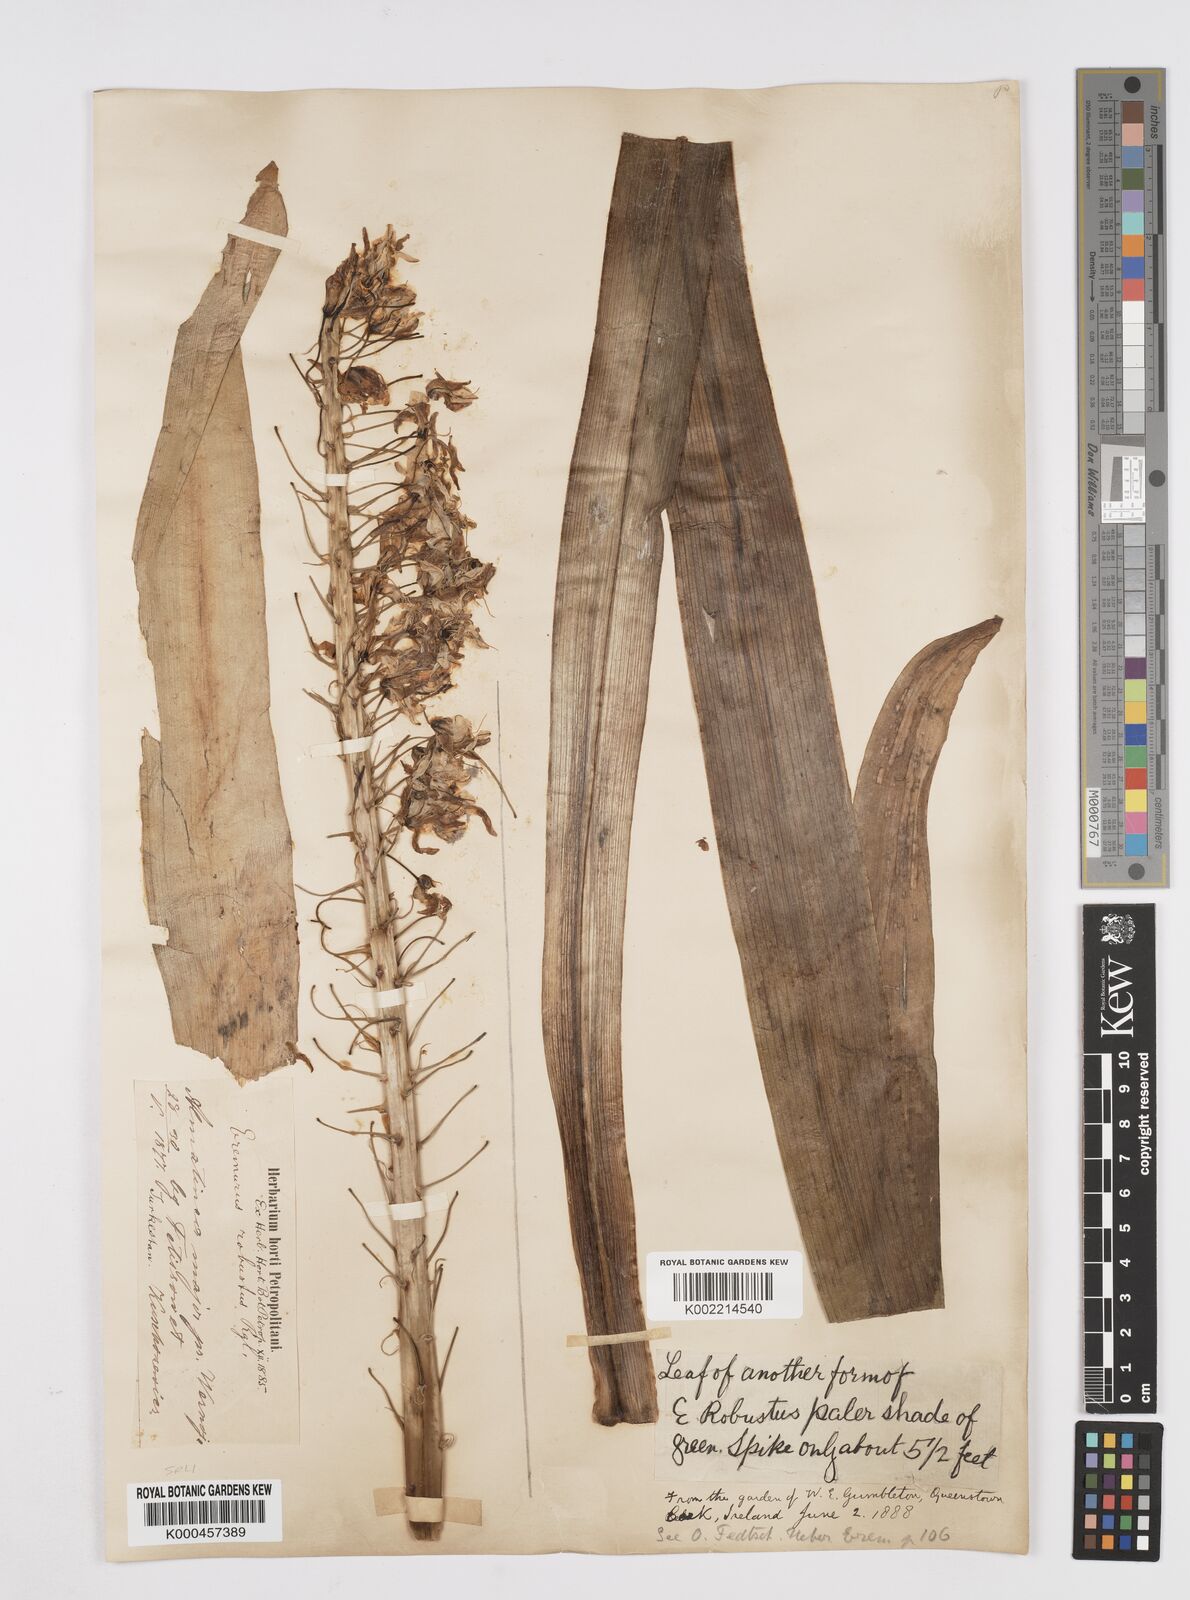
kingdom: Plantae
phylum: Tracheophyta
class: Liliopsida
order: Asparagales
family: Asphodelaceae
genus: Eremurus
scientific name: Eremurus robustus
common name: Foxtail lily
